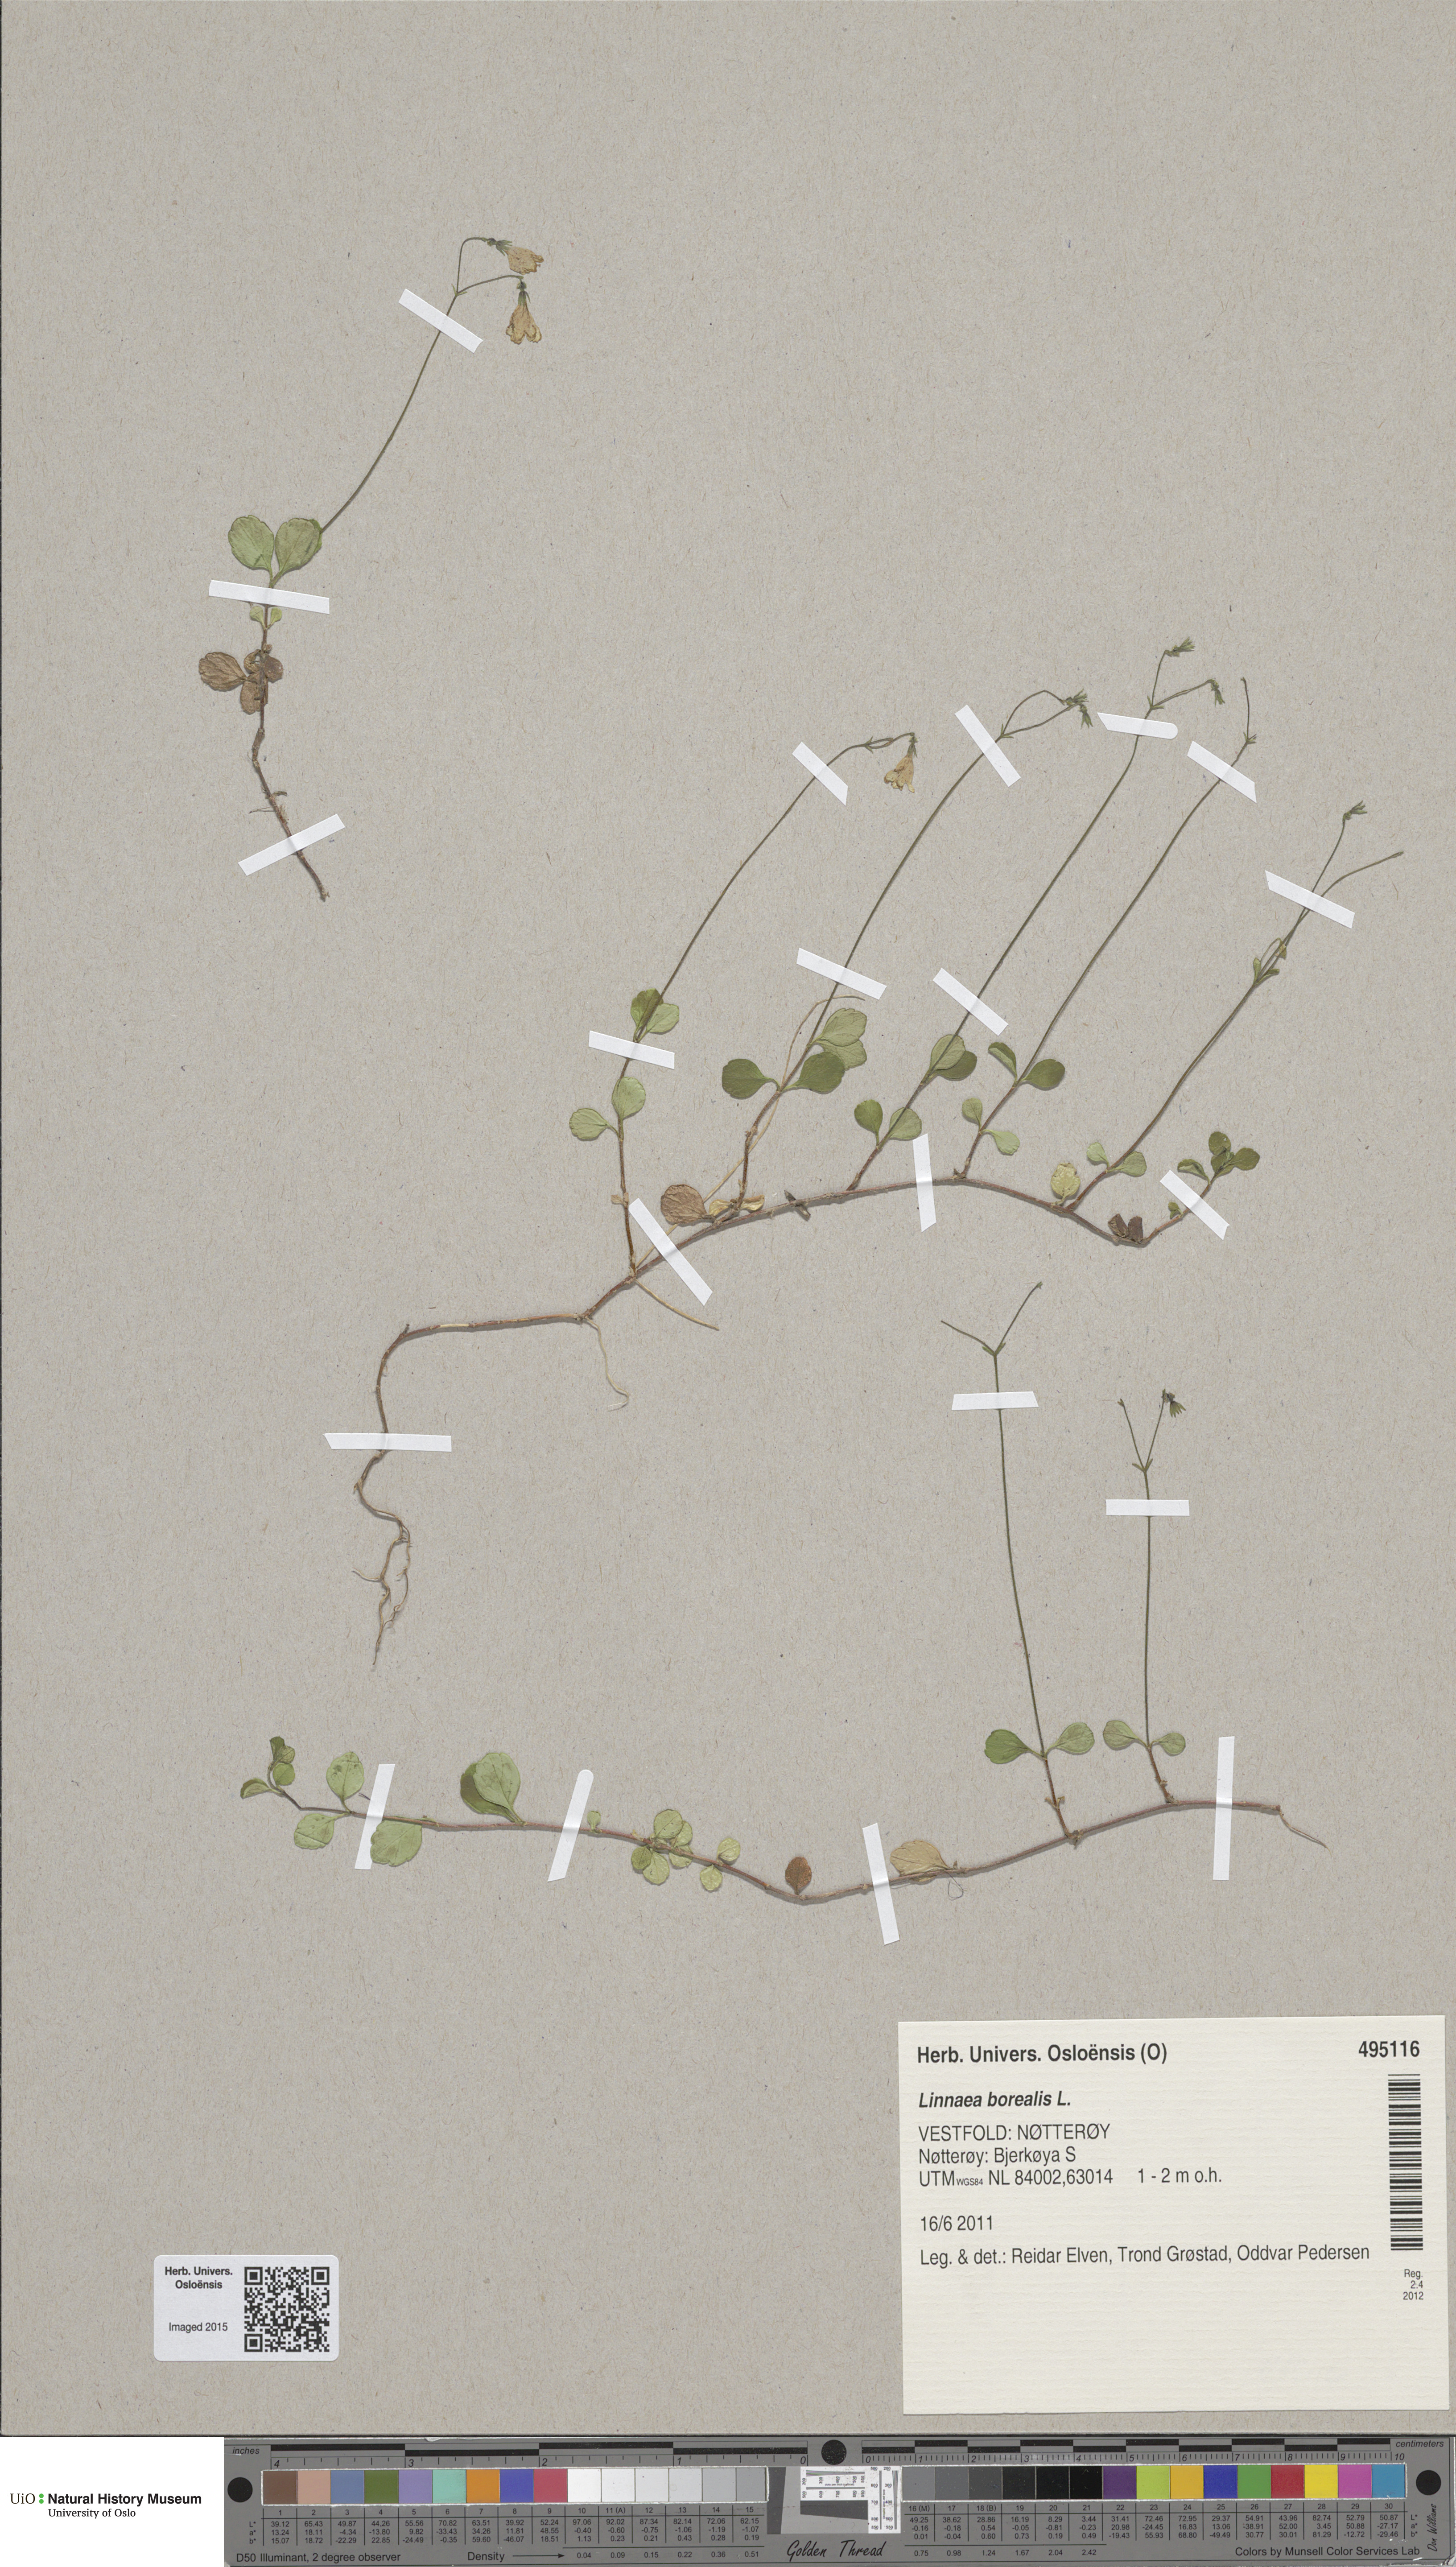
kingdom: Plantae
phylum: Tracheophyta
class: Magnoliopsida
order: Dipsacales
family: Caprifoliaceae
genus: Linnaea
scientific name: Linnaea borealis
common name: Twinflower
